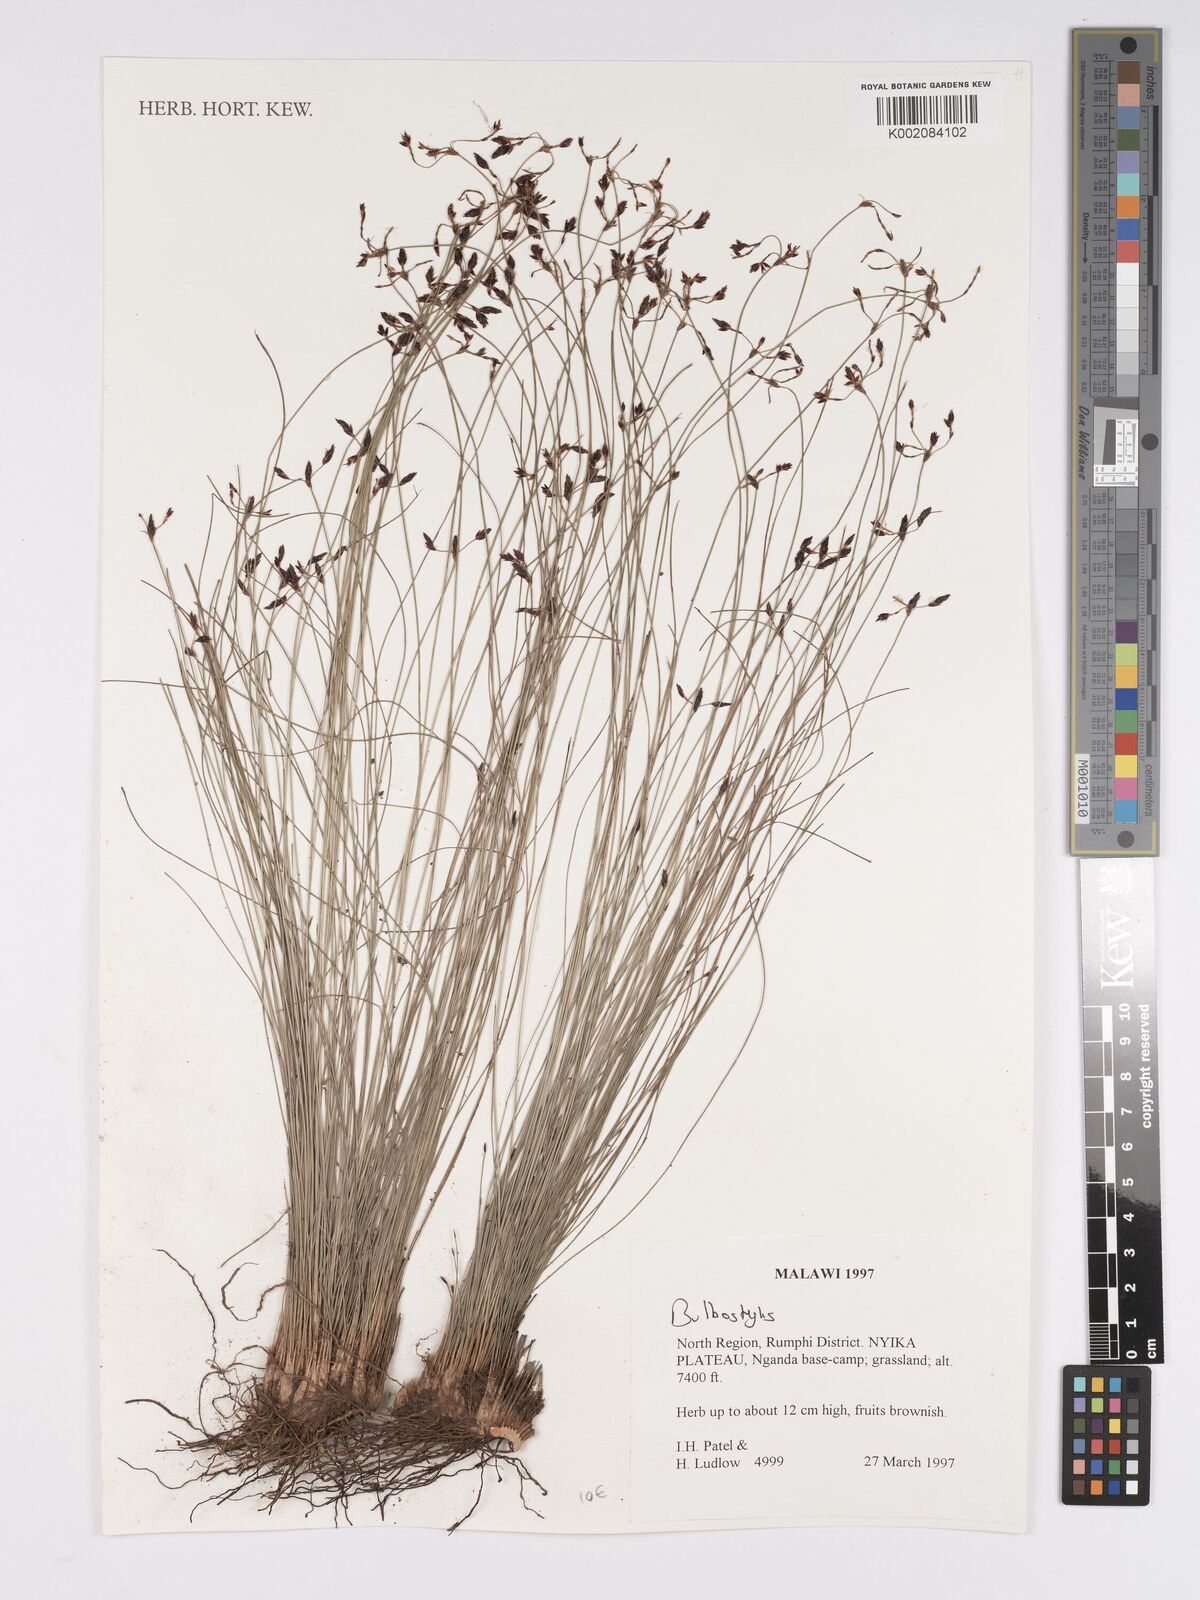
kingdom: Plantae
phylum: Tracheophyta
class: Liliopsida
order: Poales
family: Cyperaceae
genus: Bulbostylis
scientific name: Bulbostylis
